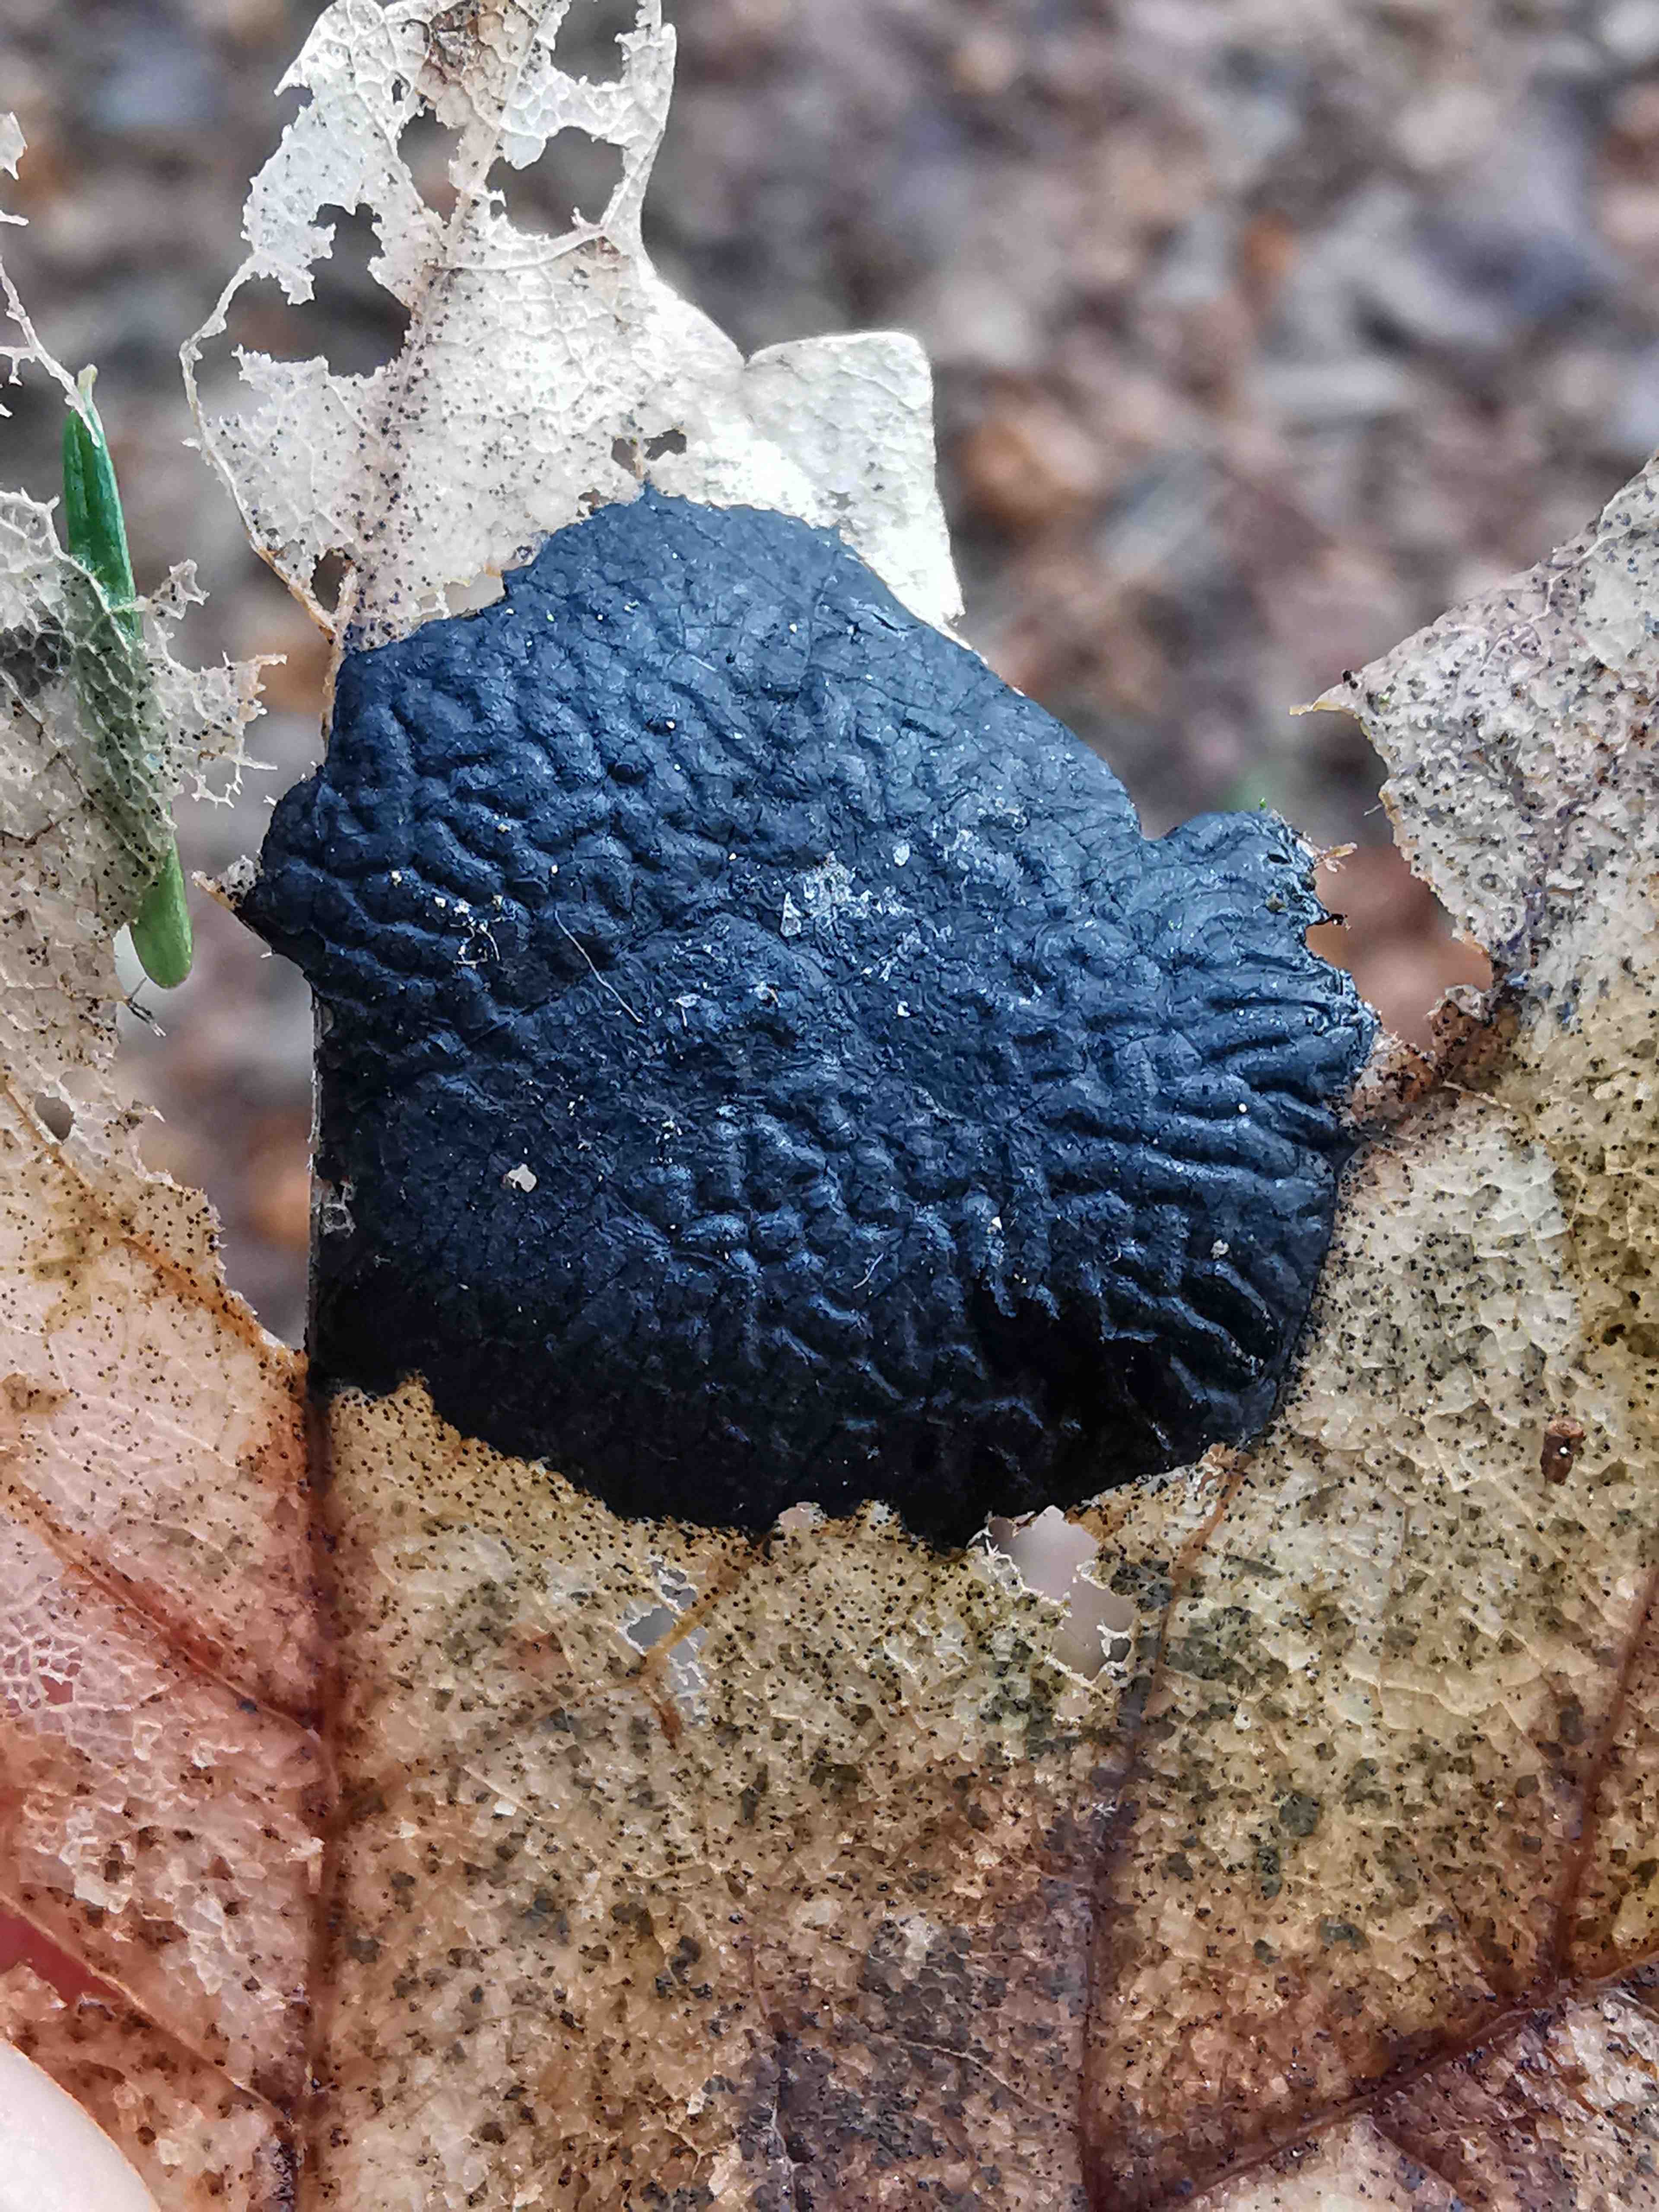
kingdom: Fungi
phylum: Ascomycota
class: Leotiomycetes
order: Rhytismatales
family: Rhytismataceae
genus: Rhytisma
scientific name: Rhytisma acerinum
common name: ahorn-rynkeplet
